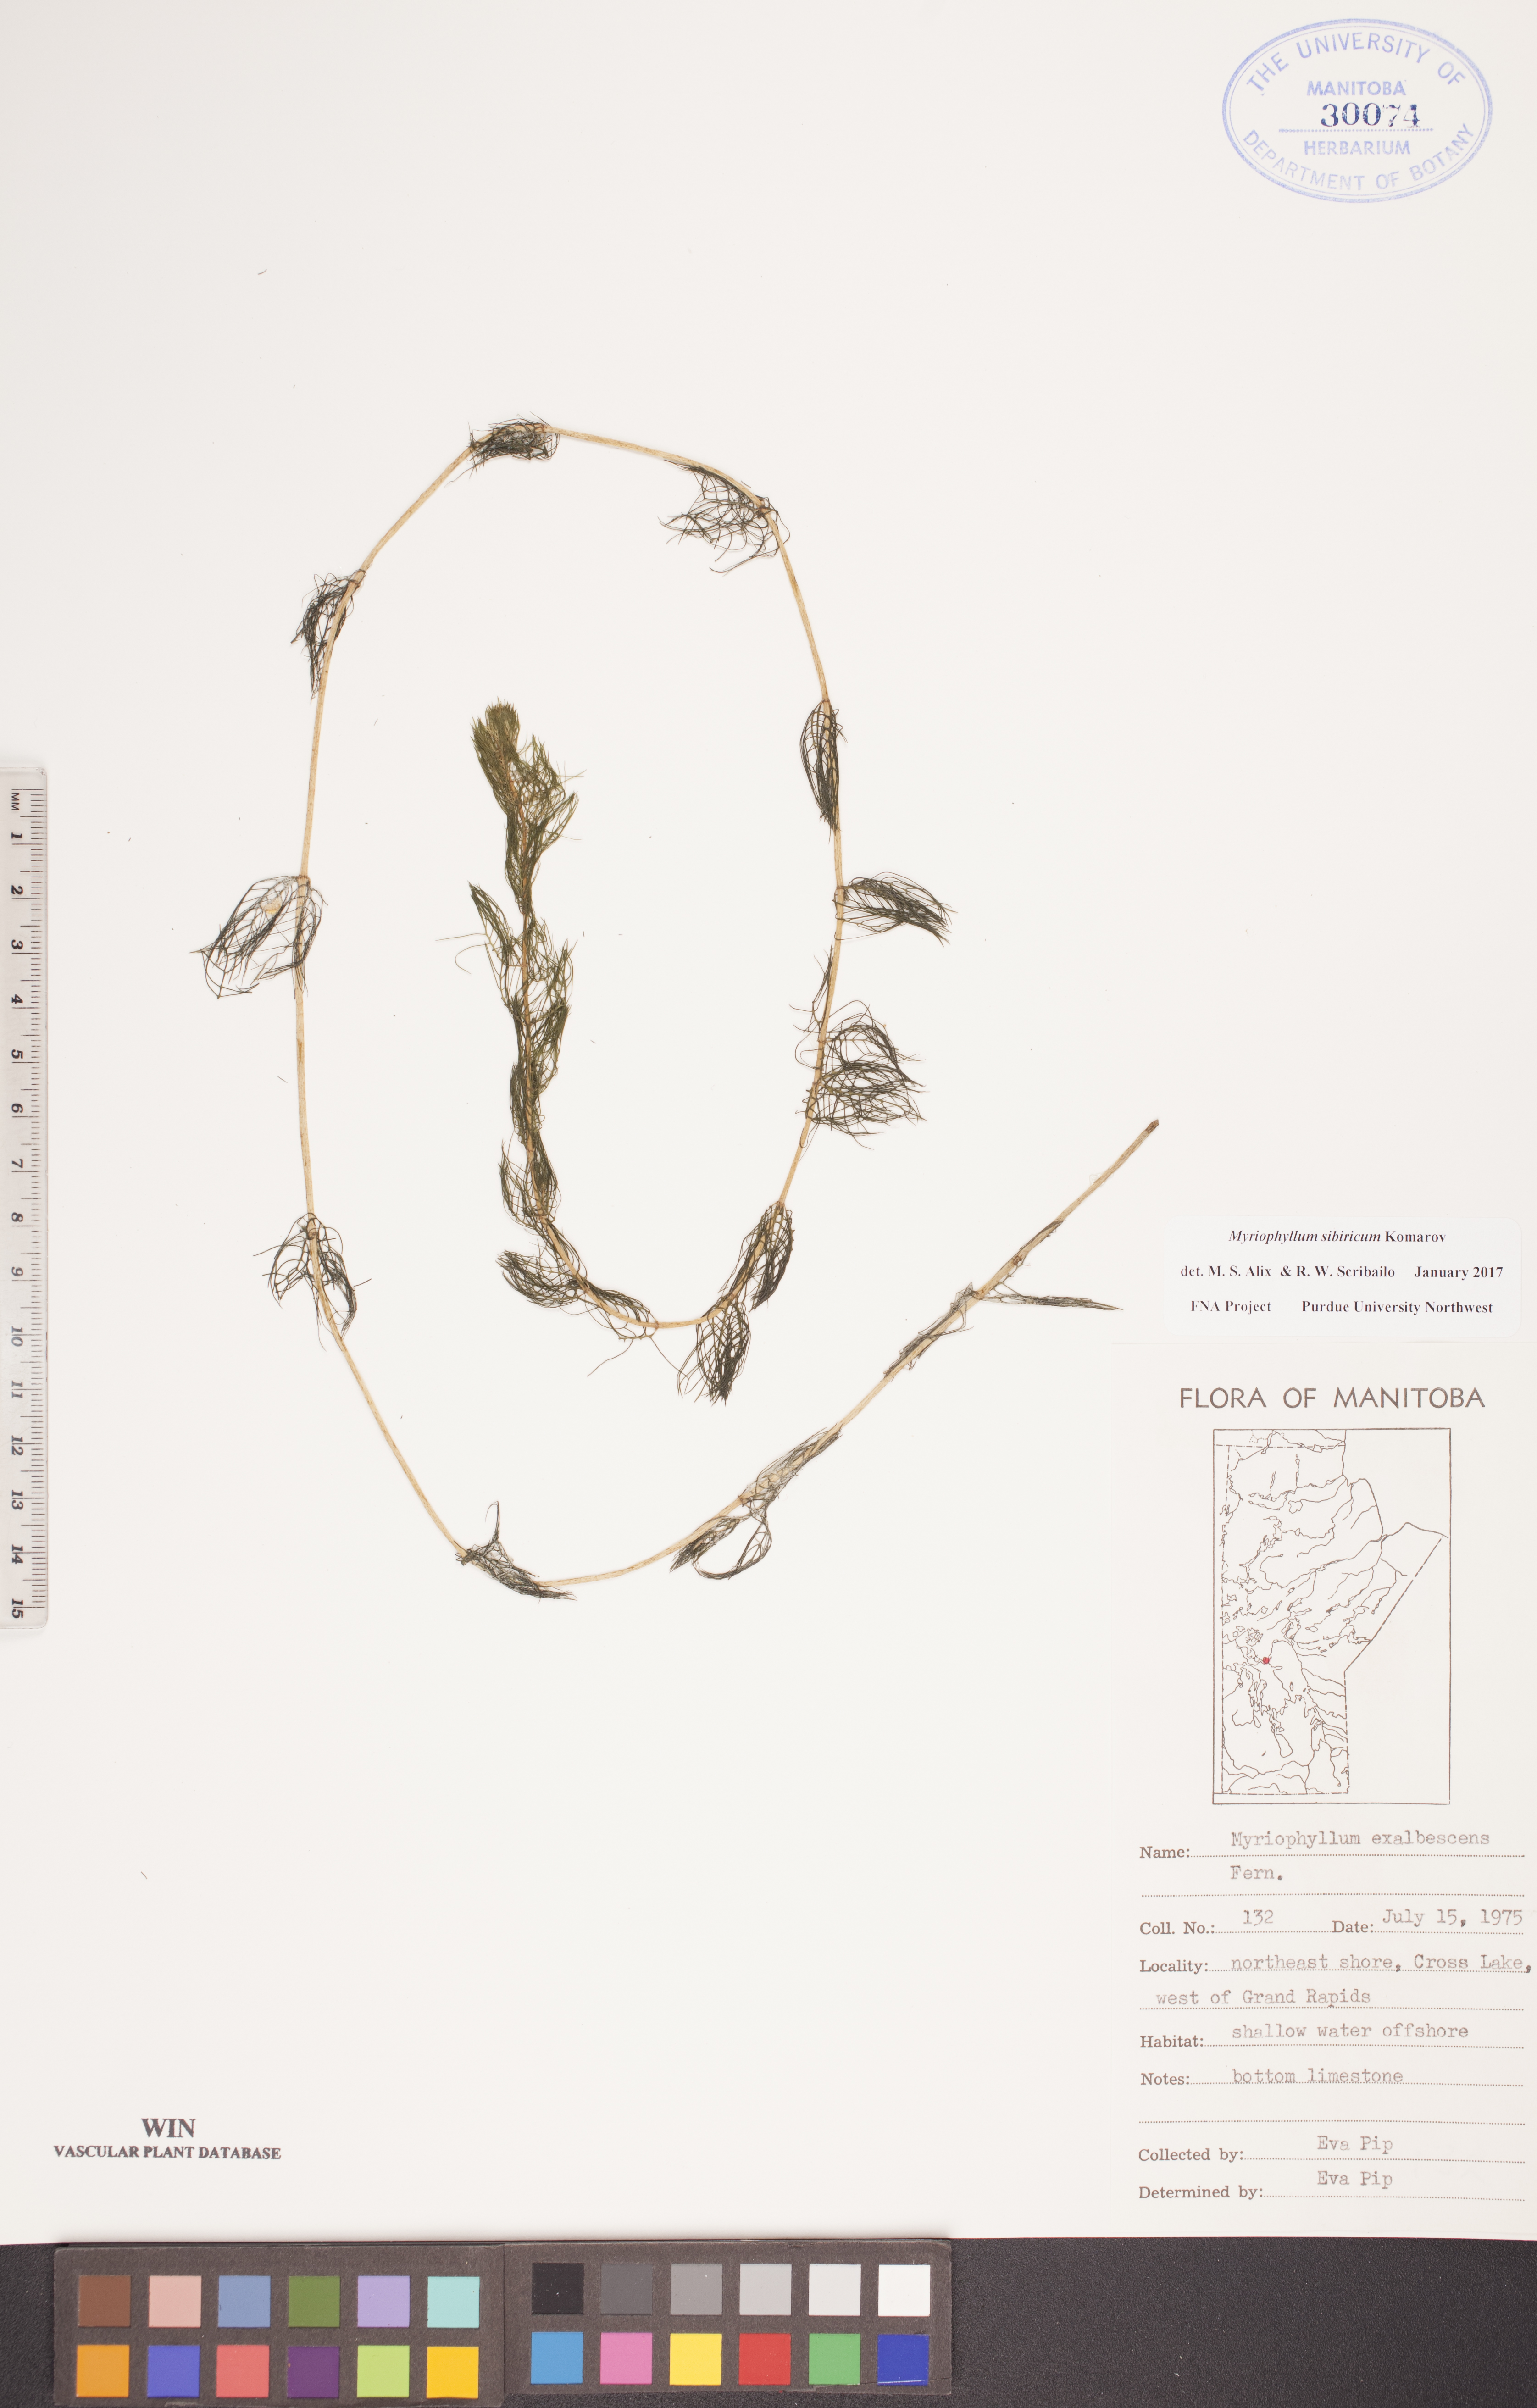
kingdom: Plantae
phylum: Tracheophyta
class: Magnoliopsida
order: Saxifragales
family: Haloragaceae
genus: Myriophyllum
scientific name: Myriophyllum sibiricum
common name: Siberian water-milfoil
